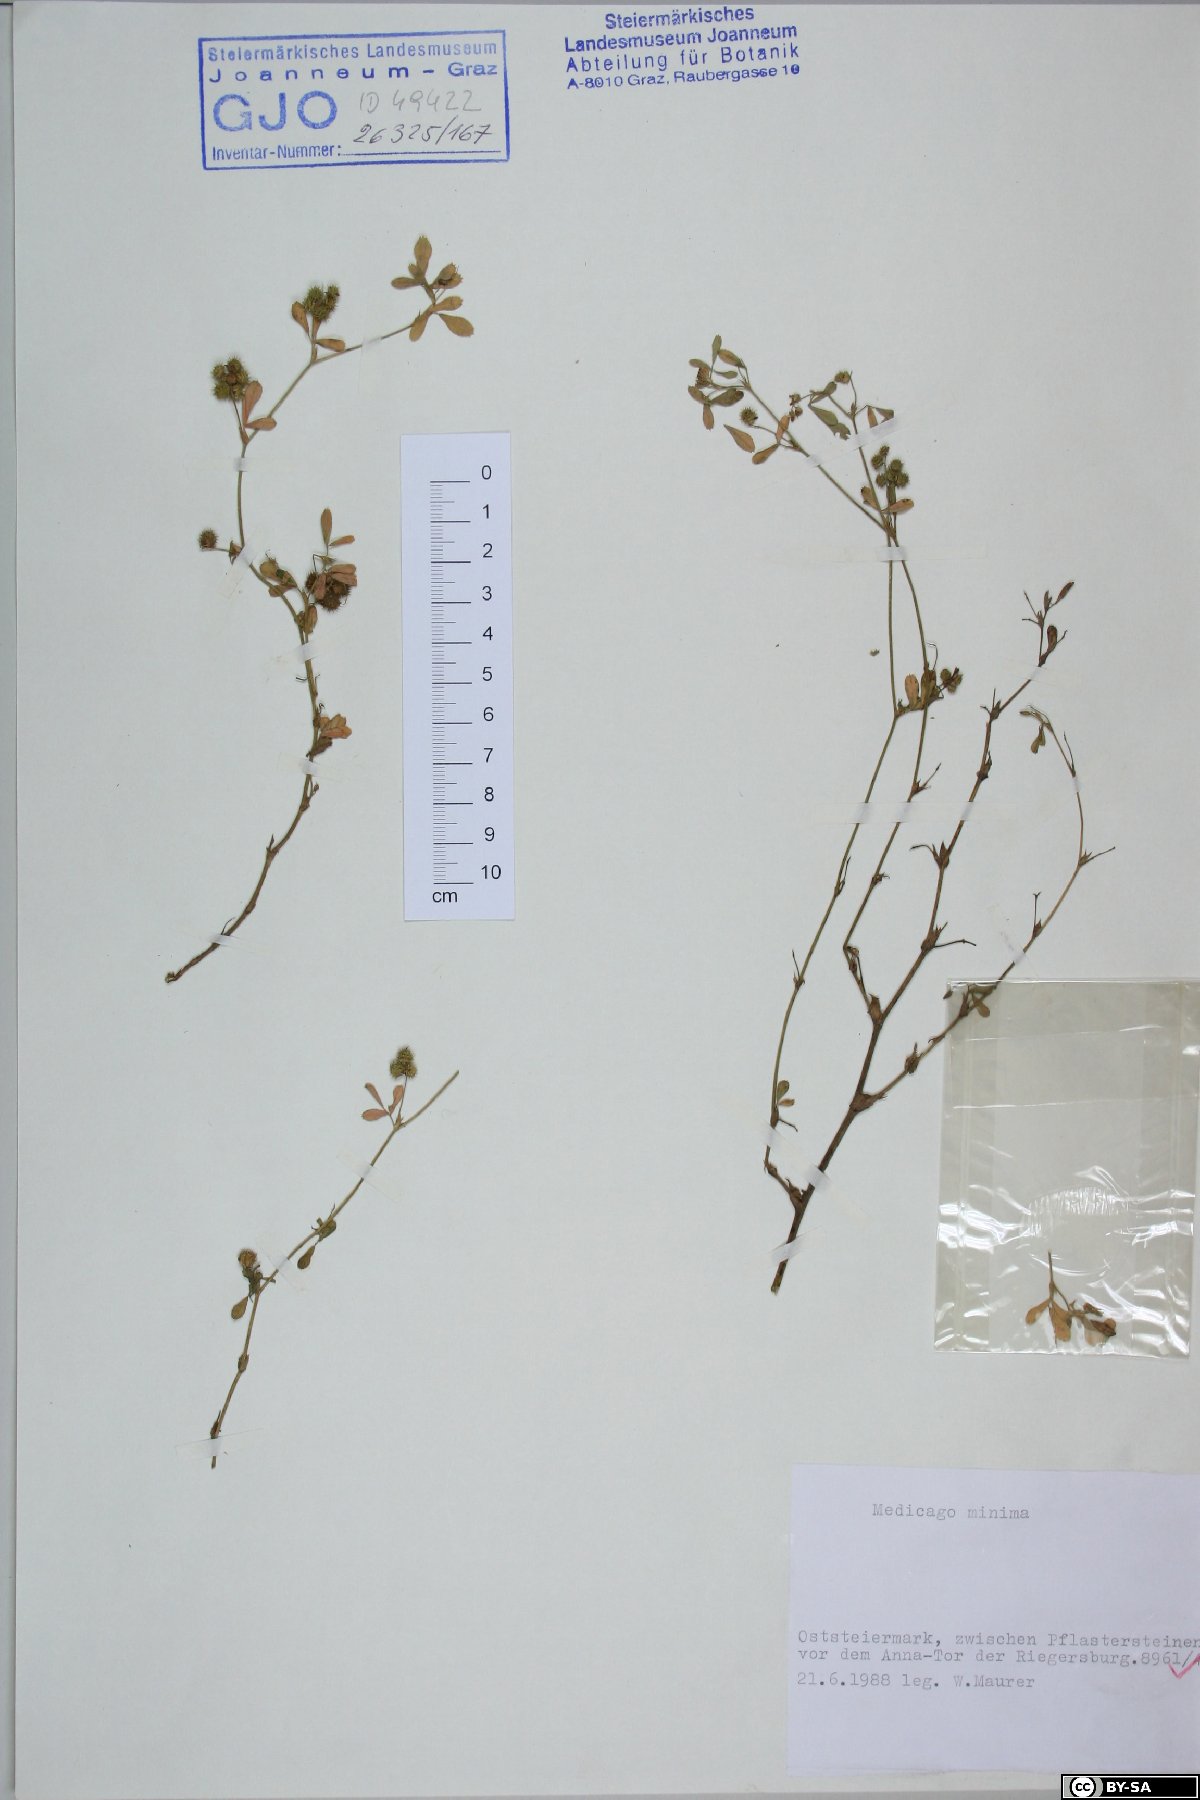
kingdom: Plantae
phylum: Tracheophyta
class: Magnoliopsida
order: Fabales
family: Fabaceae
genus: Medicago
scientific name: Medicago minima
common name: Little bur-clover
